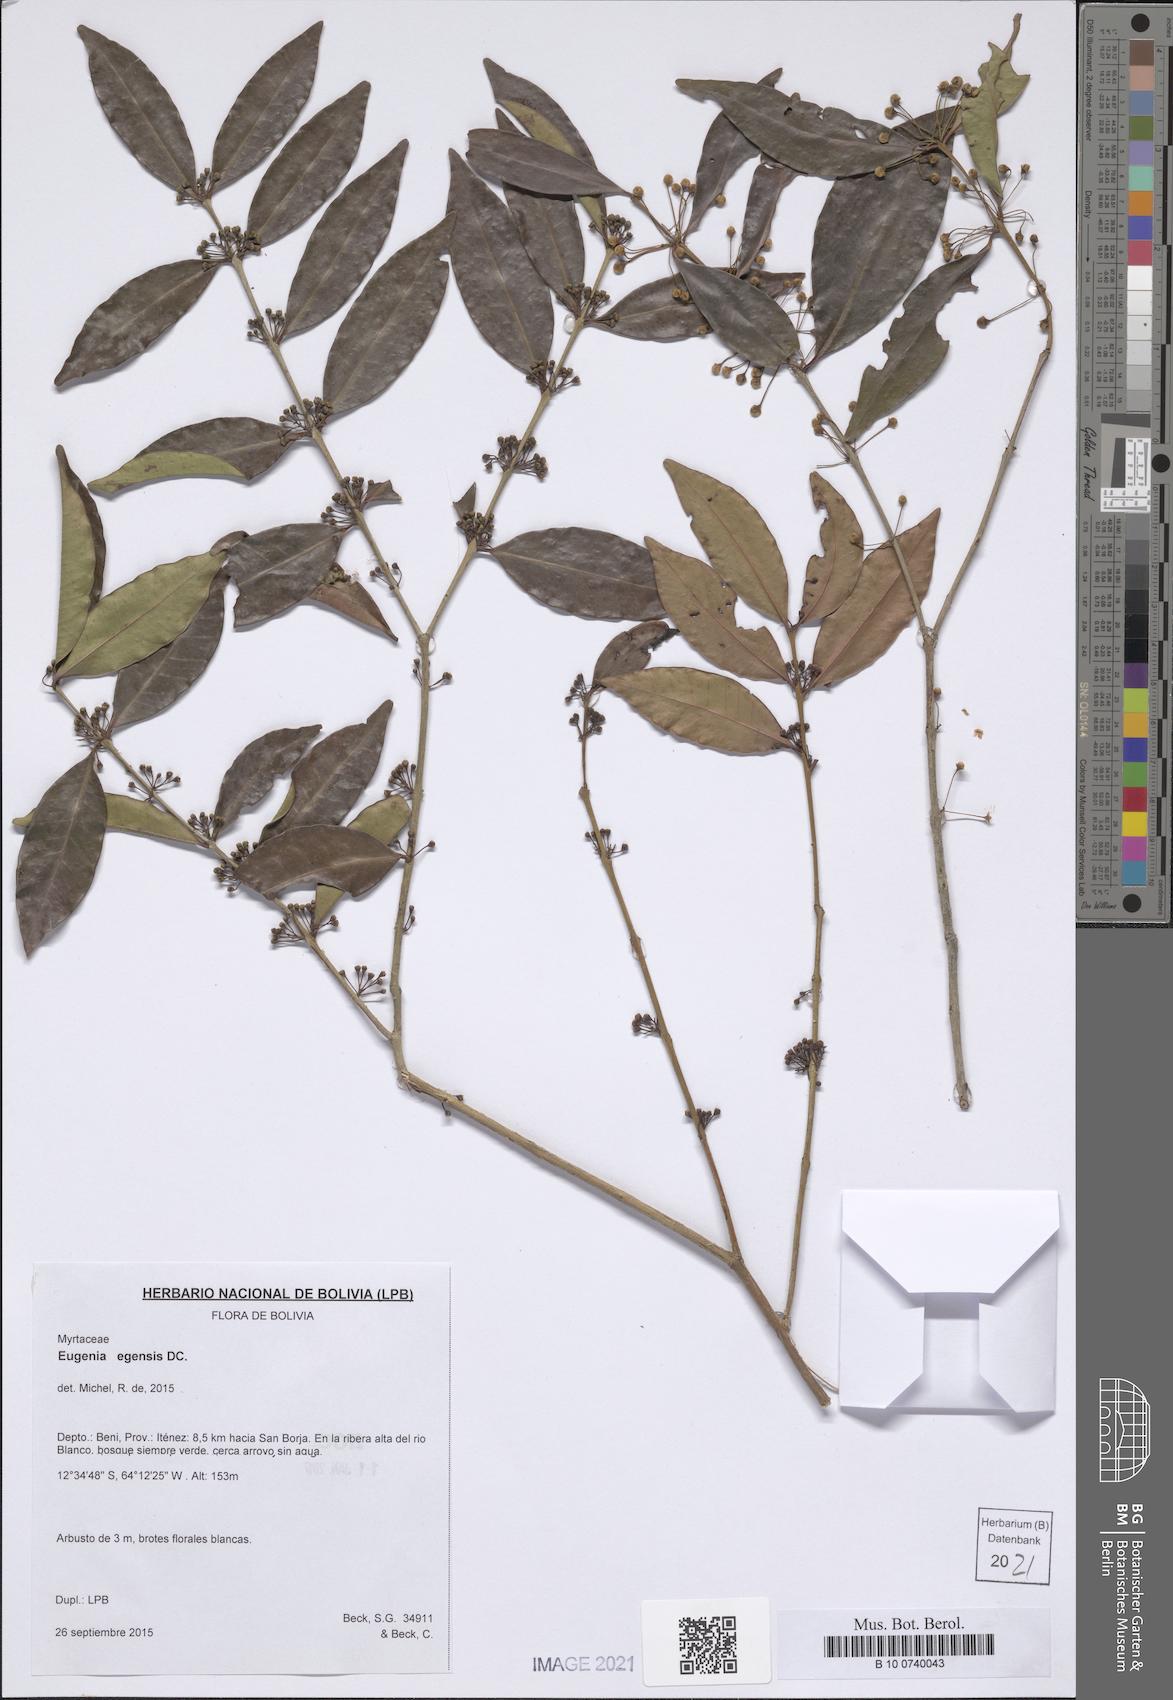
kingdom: Plantae
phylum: Tracheophyta
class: Magnoliopsida
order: Myrtales
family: Myrtaceae
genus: Eugenia
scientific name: Eugenia egensis
